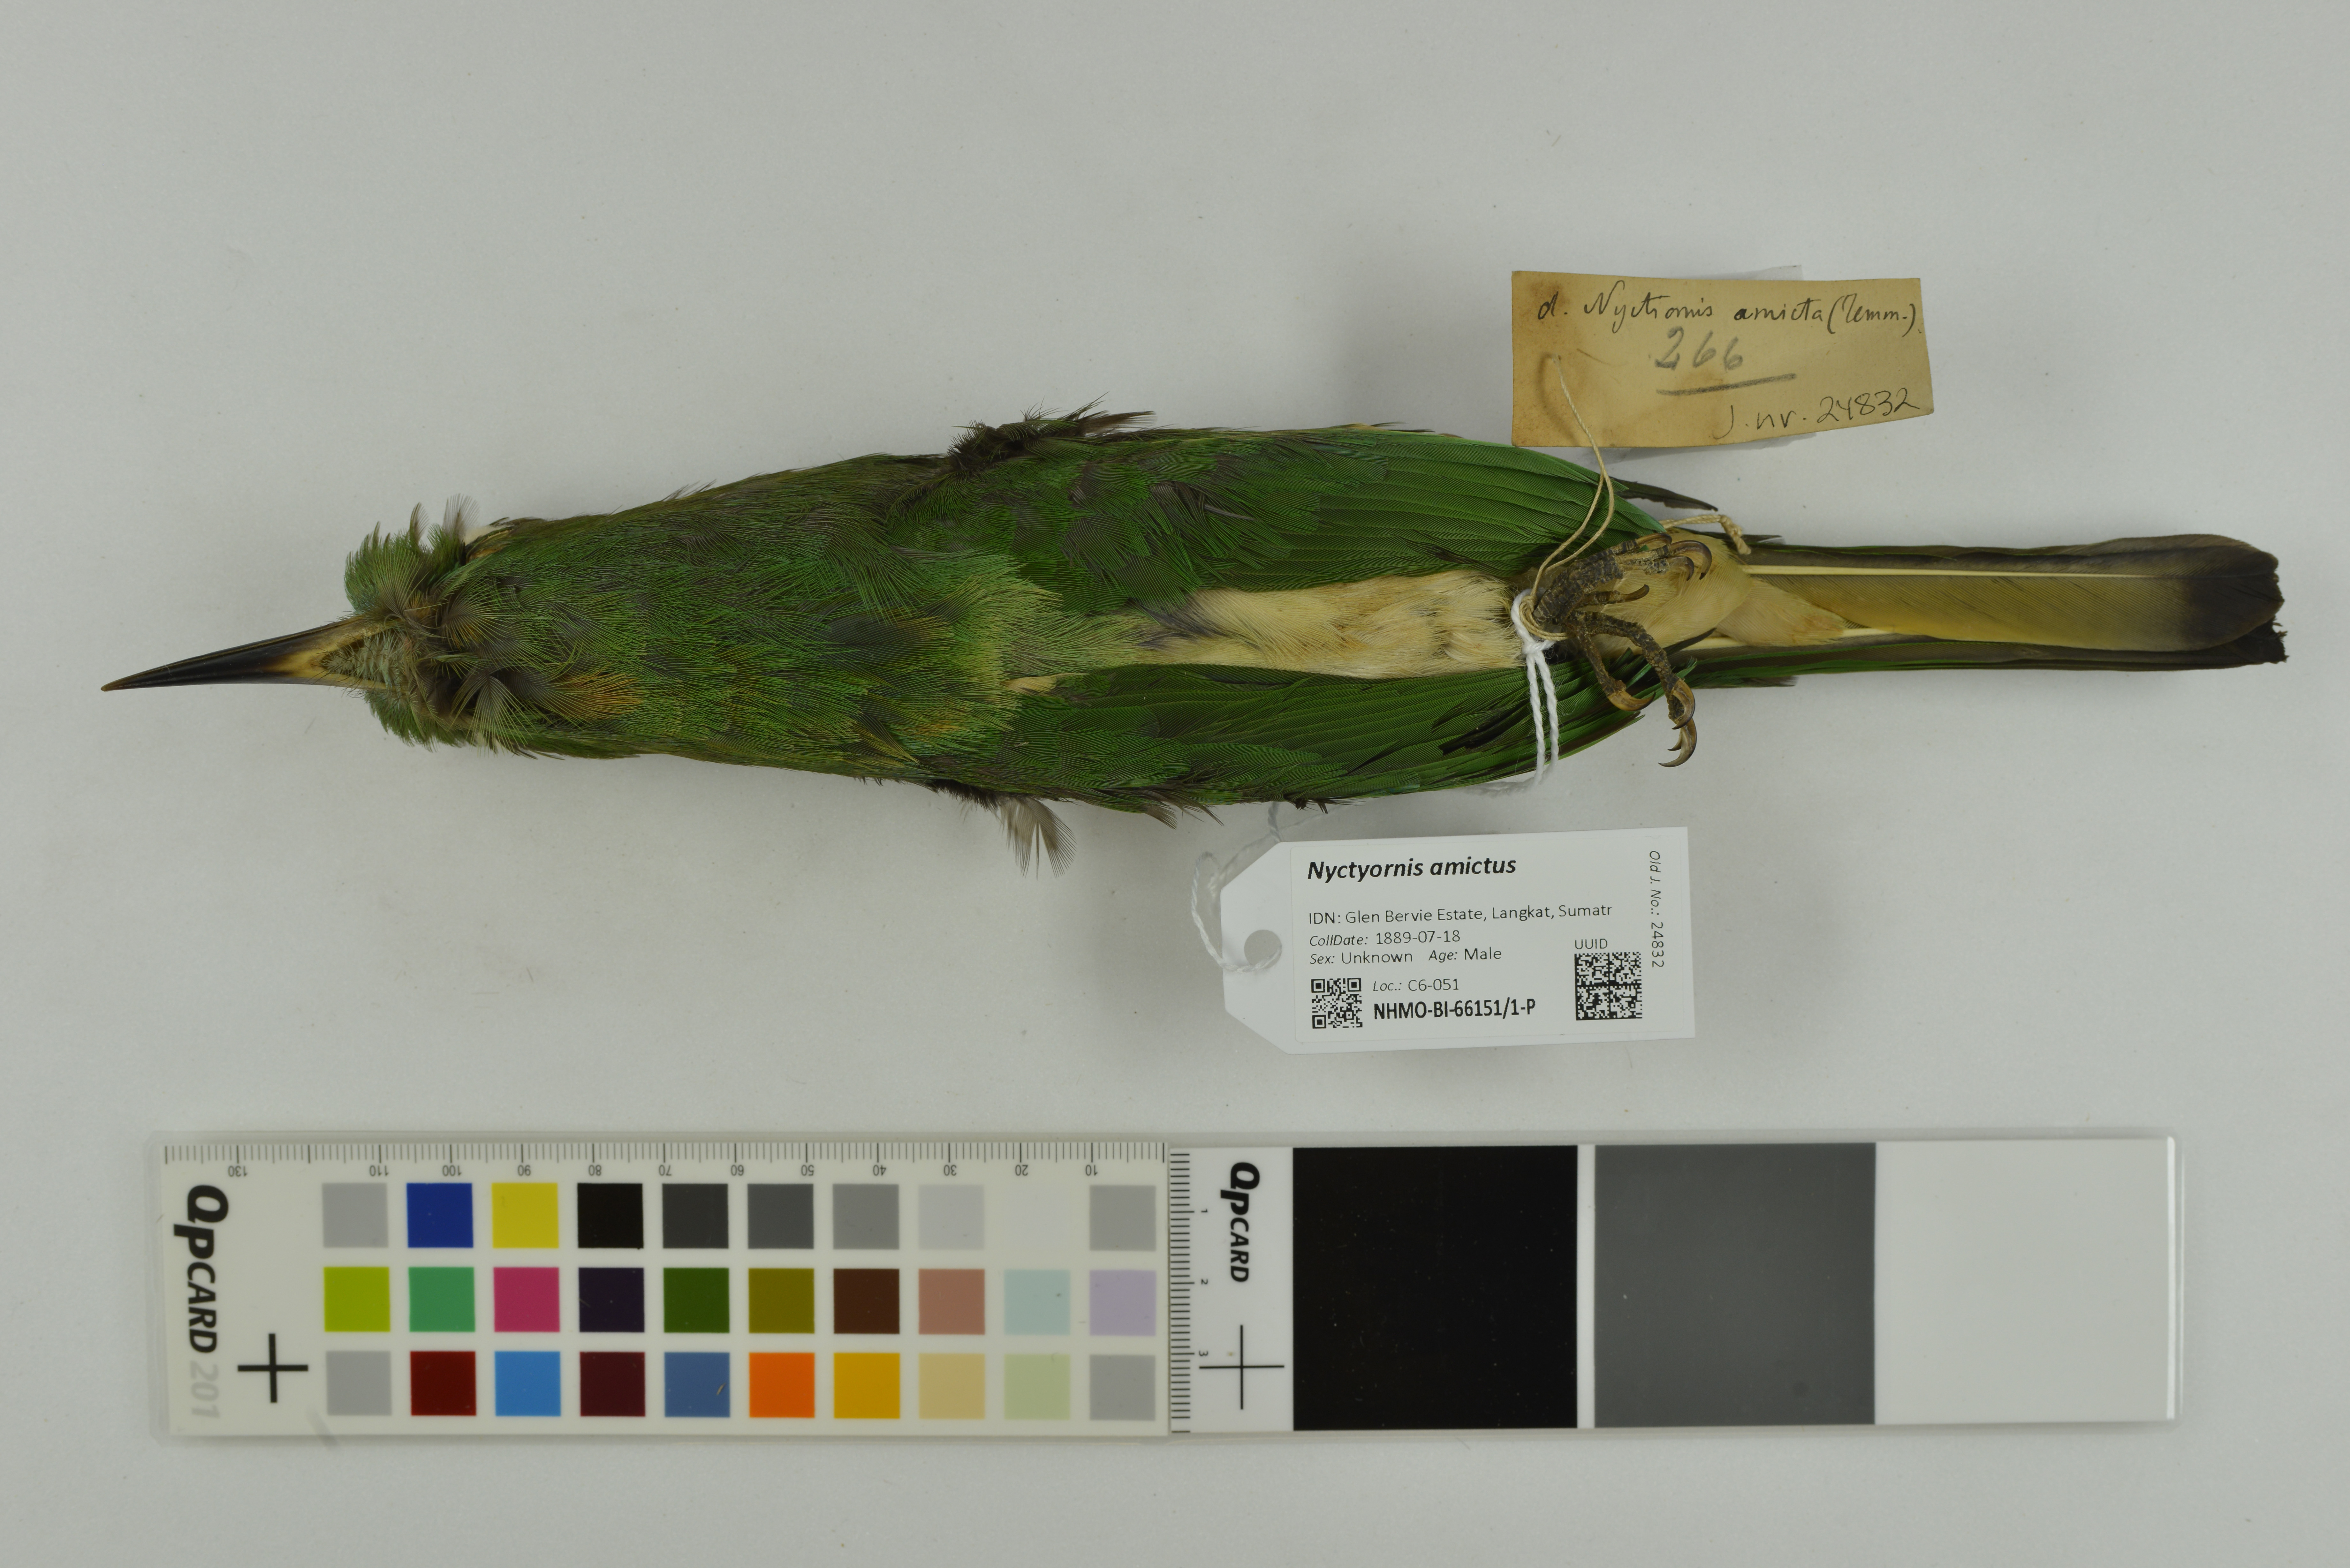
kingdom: Animalia
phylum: Chordata
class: Aves
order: Coraciiformes
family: Meropidae
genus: Nyctyornis
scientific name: Nyctyornis amictus
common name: Red-bearded bee-eater
